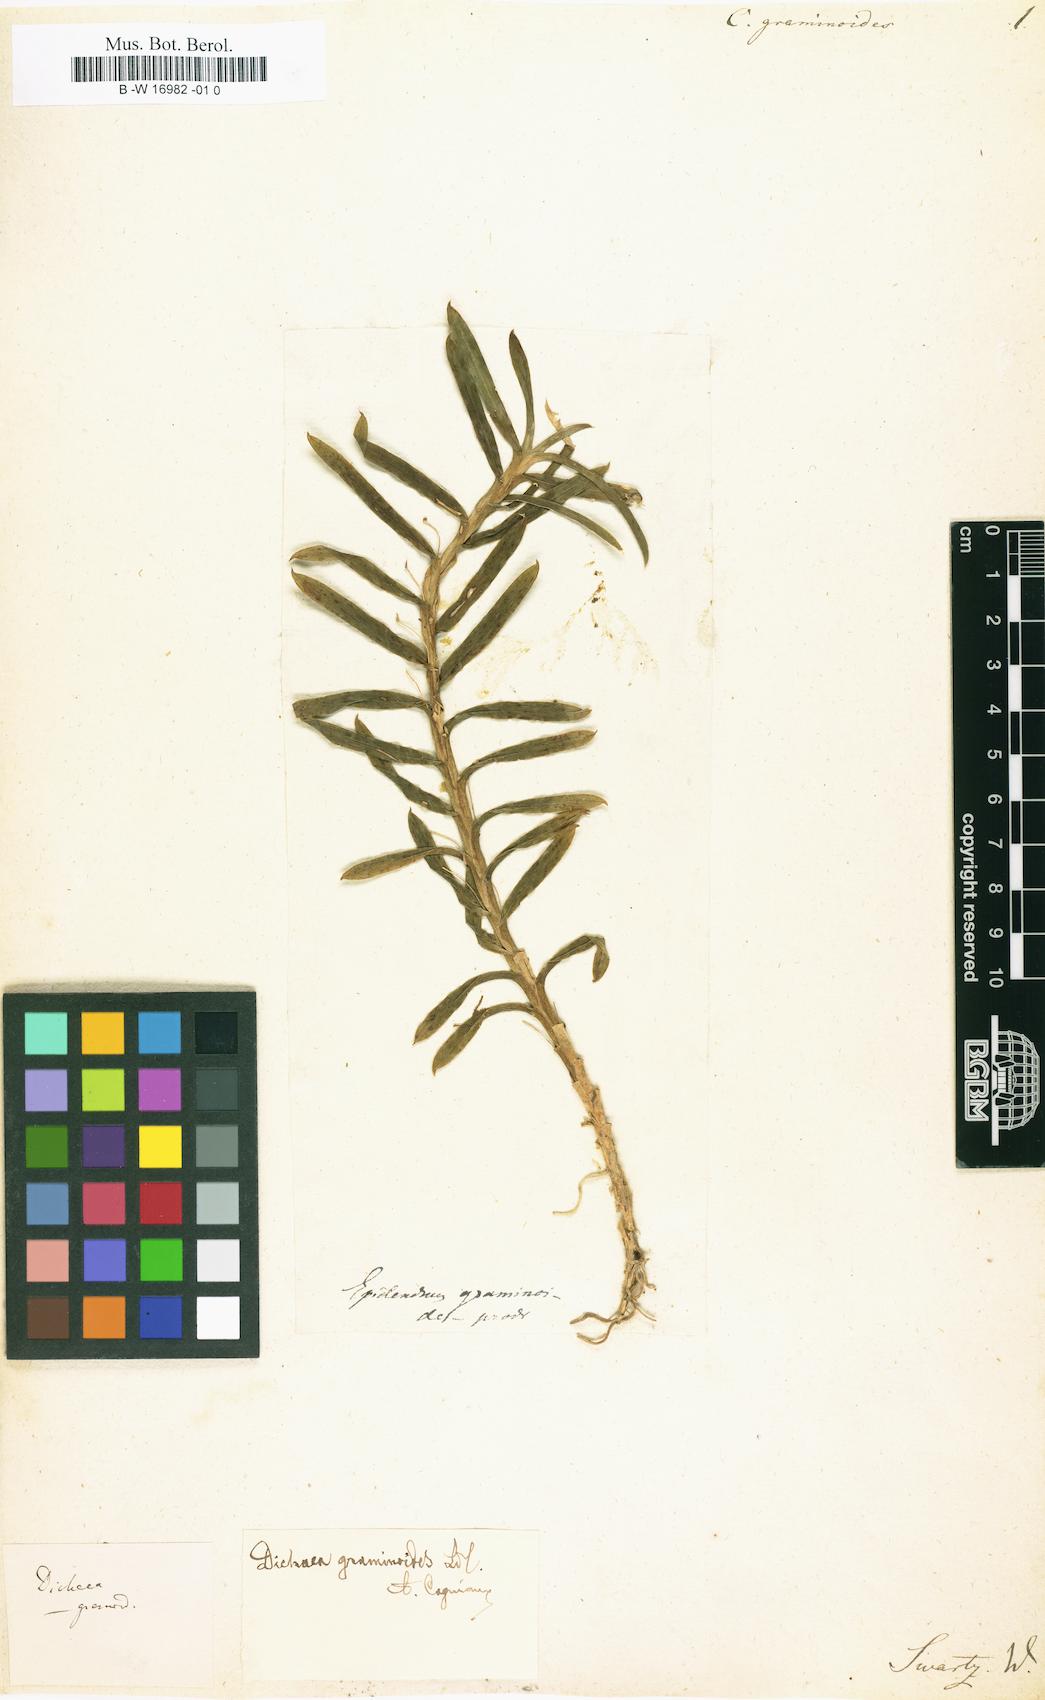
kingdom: Plantae
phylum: Tracheophyta
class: Liliopsida
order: Asparagales
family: Orchidaceae
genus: Dichaea
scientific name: Dichaea graminoides
